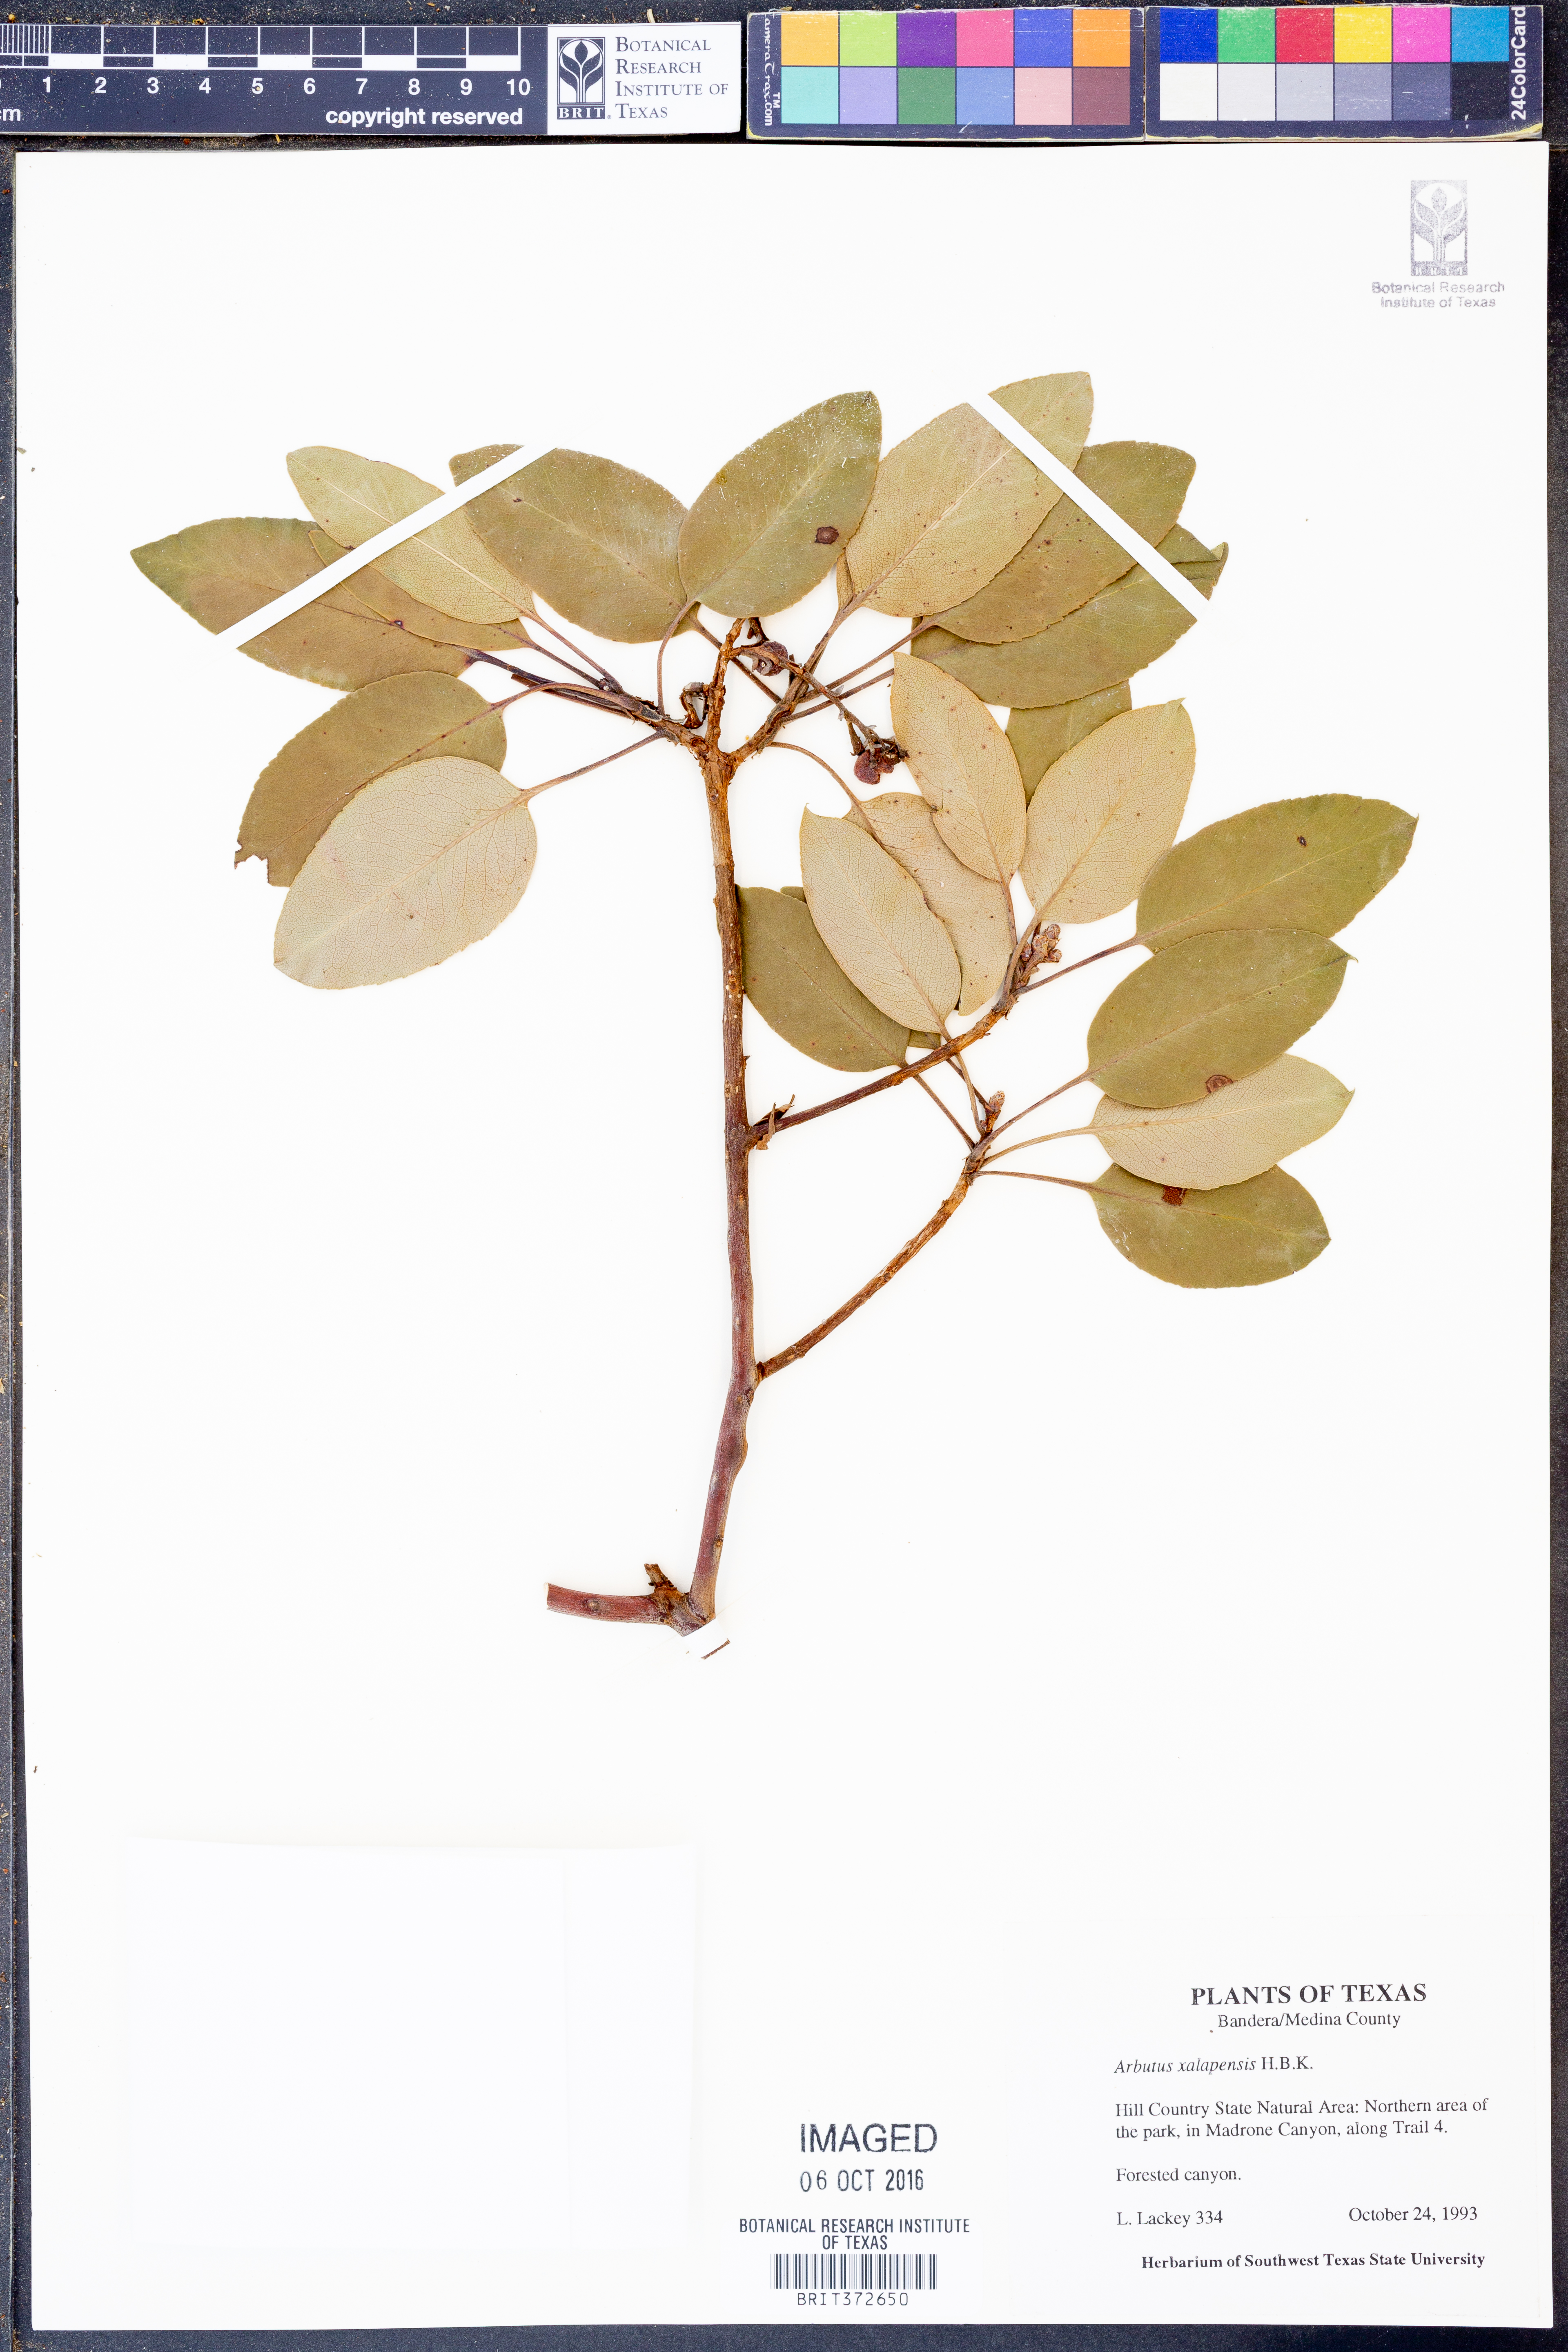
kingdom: Plantae
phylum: Tracheophyta
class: Magnoliopsida
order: Ericales
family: Ericaceae
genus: Arbutus
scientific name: Arbutus xalapensis
